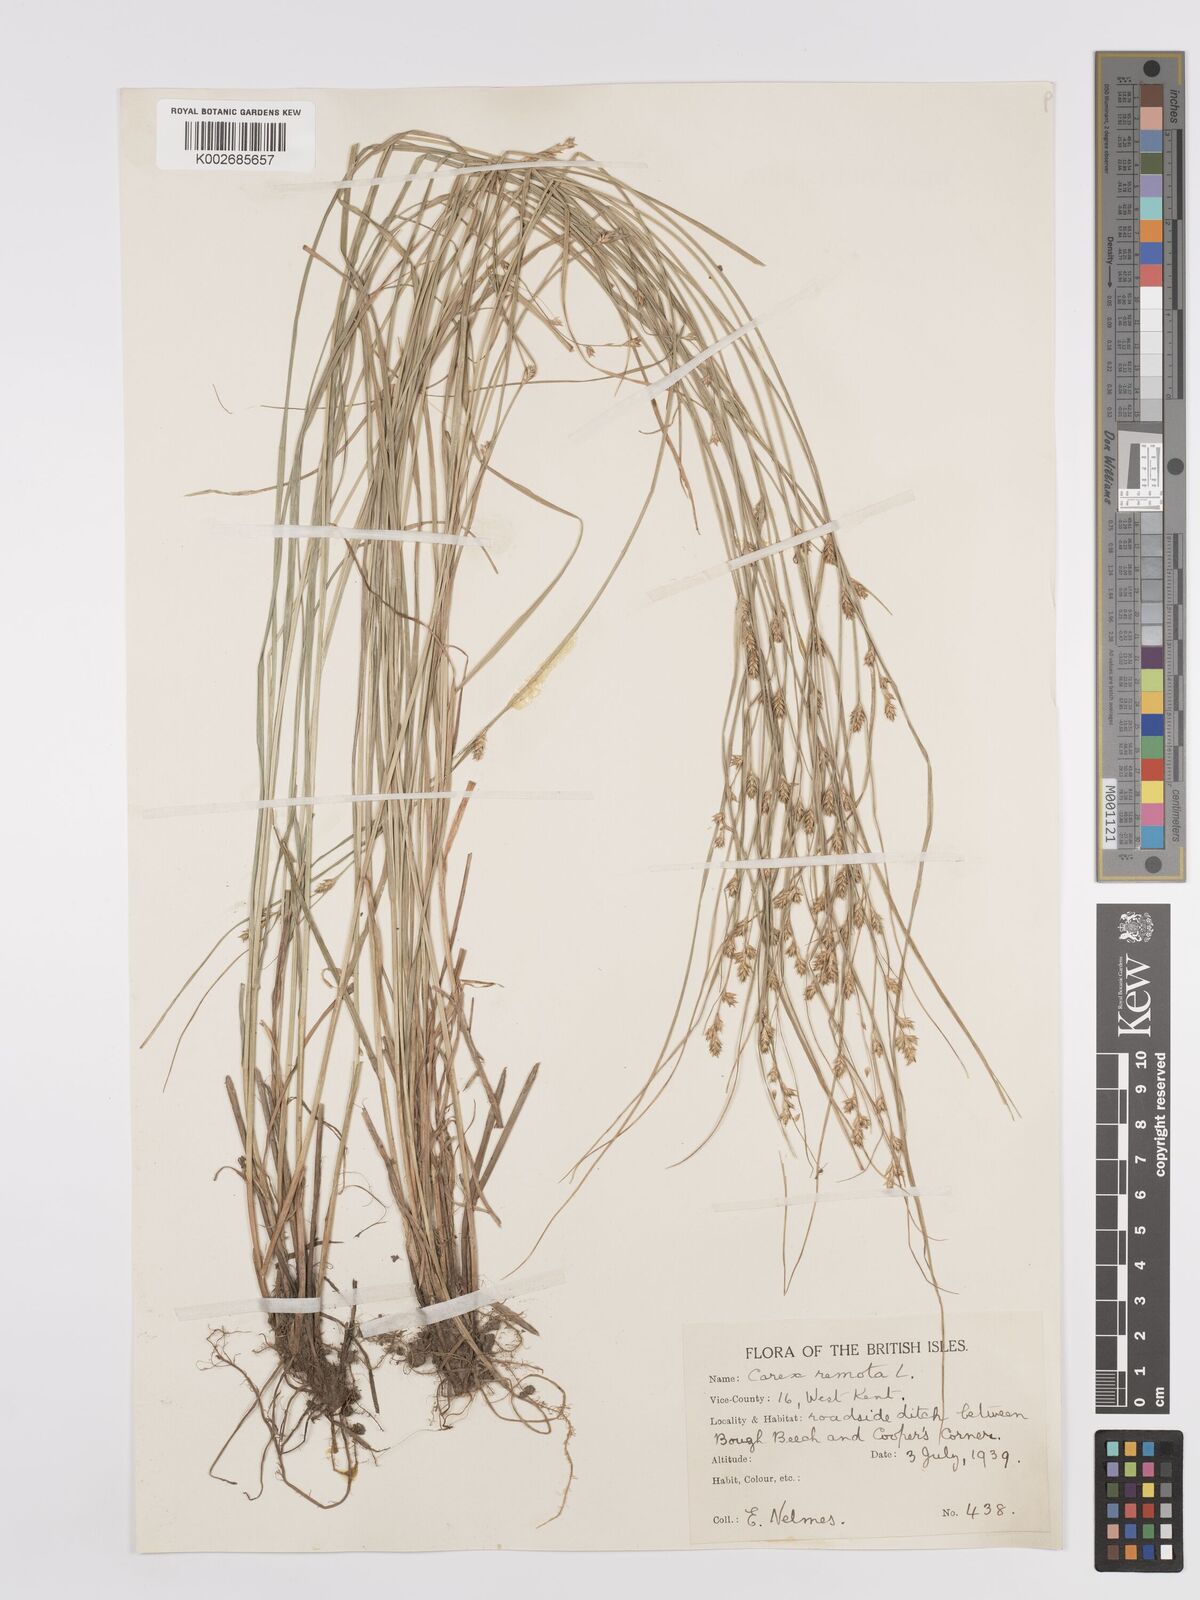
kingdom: Plantae
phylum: Tracheophyta
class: Liliopsida
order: Poales
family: Cyperaceae
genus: Carex
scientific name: Carex remota
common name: Remote sedge
